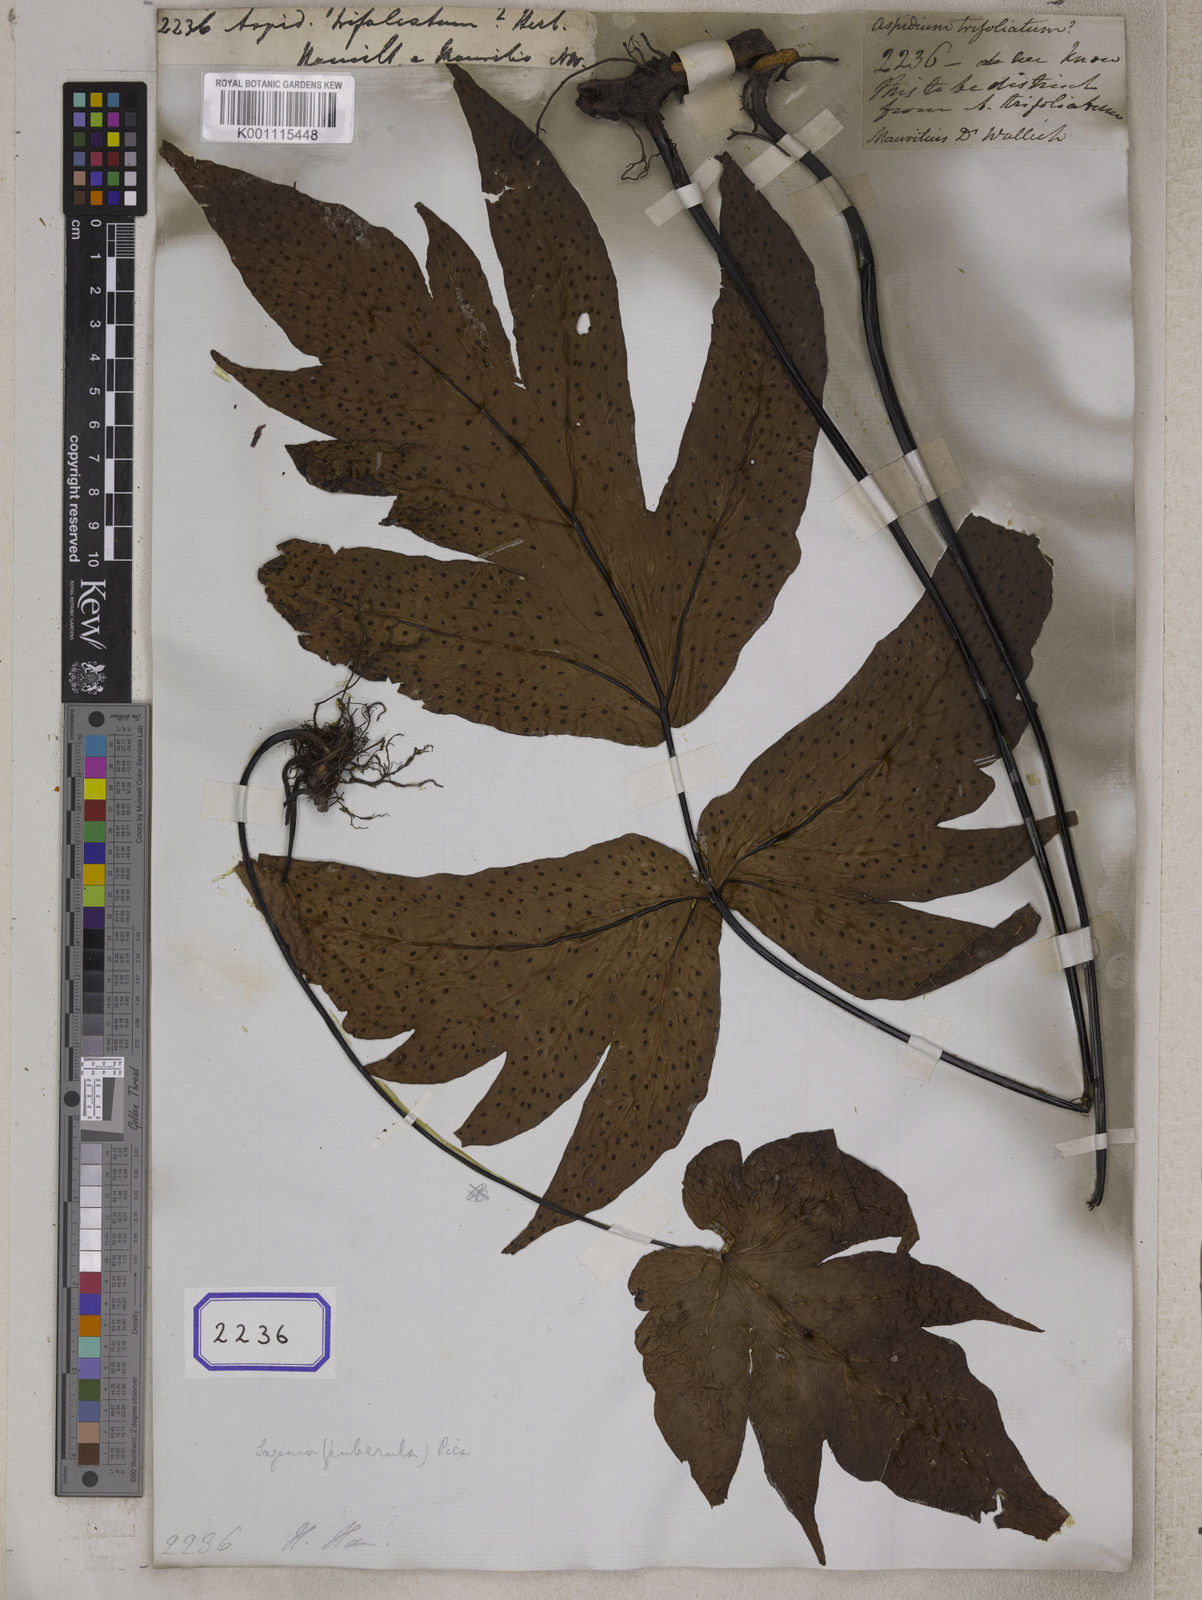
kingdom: Plantae
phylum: Tracheophyta
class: Polypodiopsida
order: Polypodiales
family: Tectariaceae
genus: Tectaria
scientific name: Tectaria trifoliata
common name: Threeleaf halberd fern
